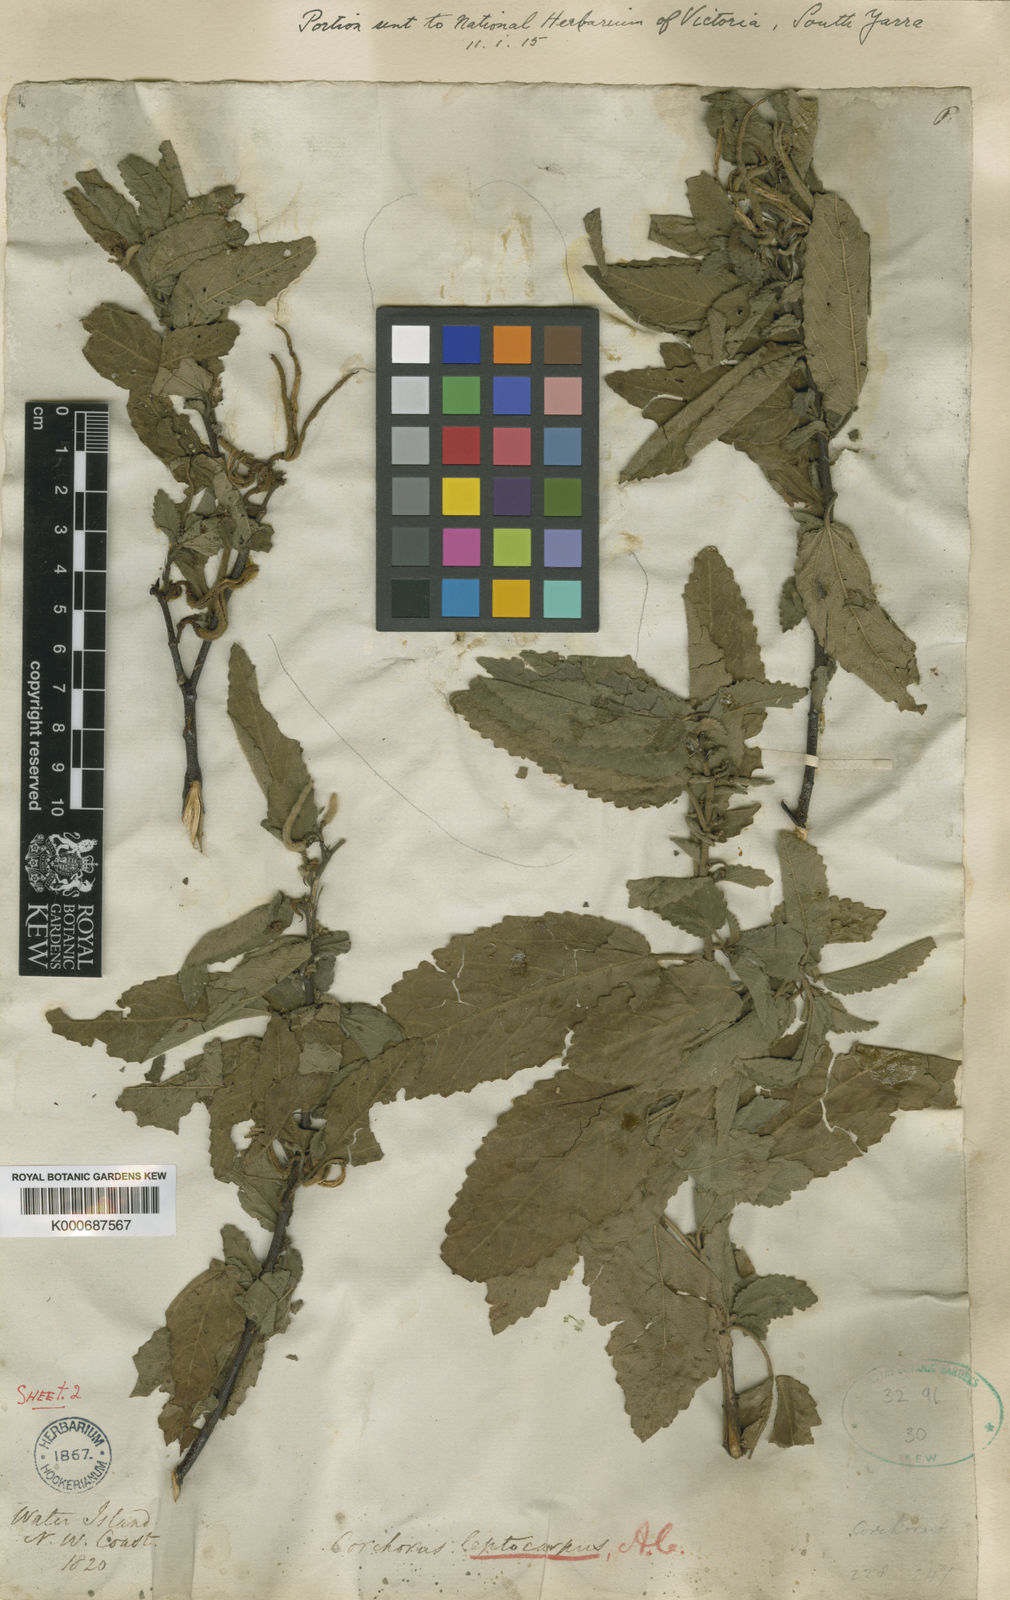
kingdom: Plantae
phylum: Tracheophyta
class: Magnoliopsida
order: Malvales
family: Malvaceae
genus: Corchorus
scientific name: Corchorus leptocarpus
